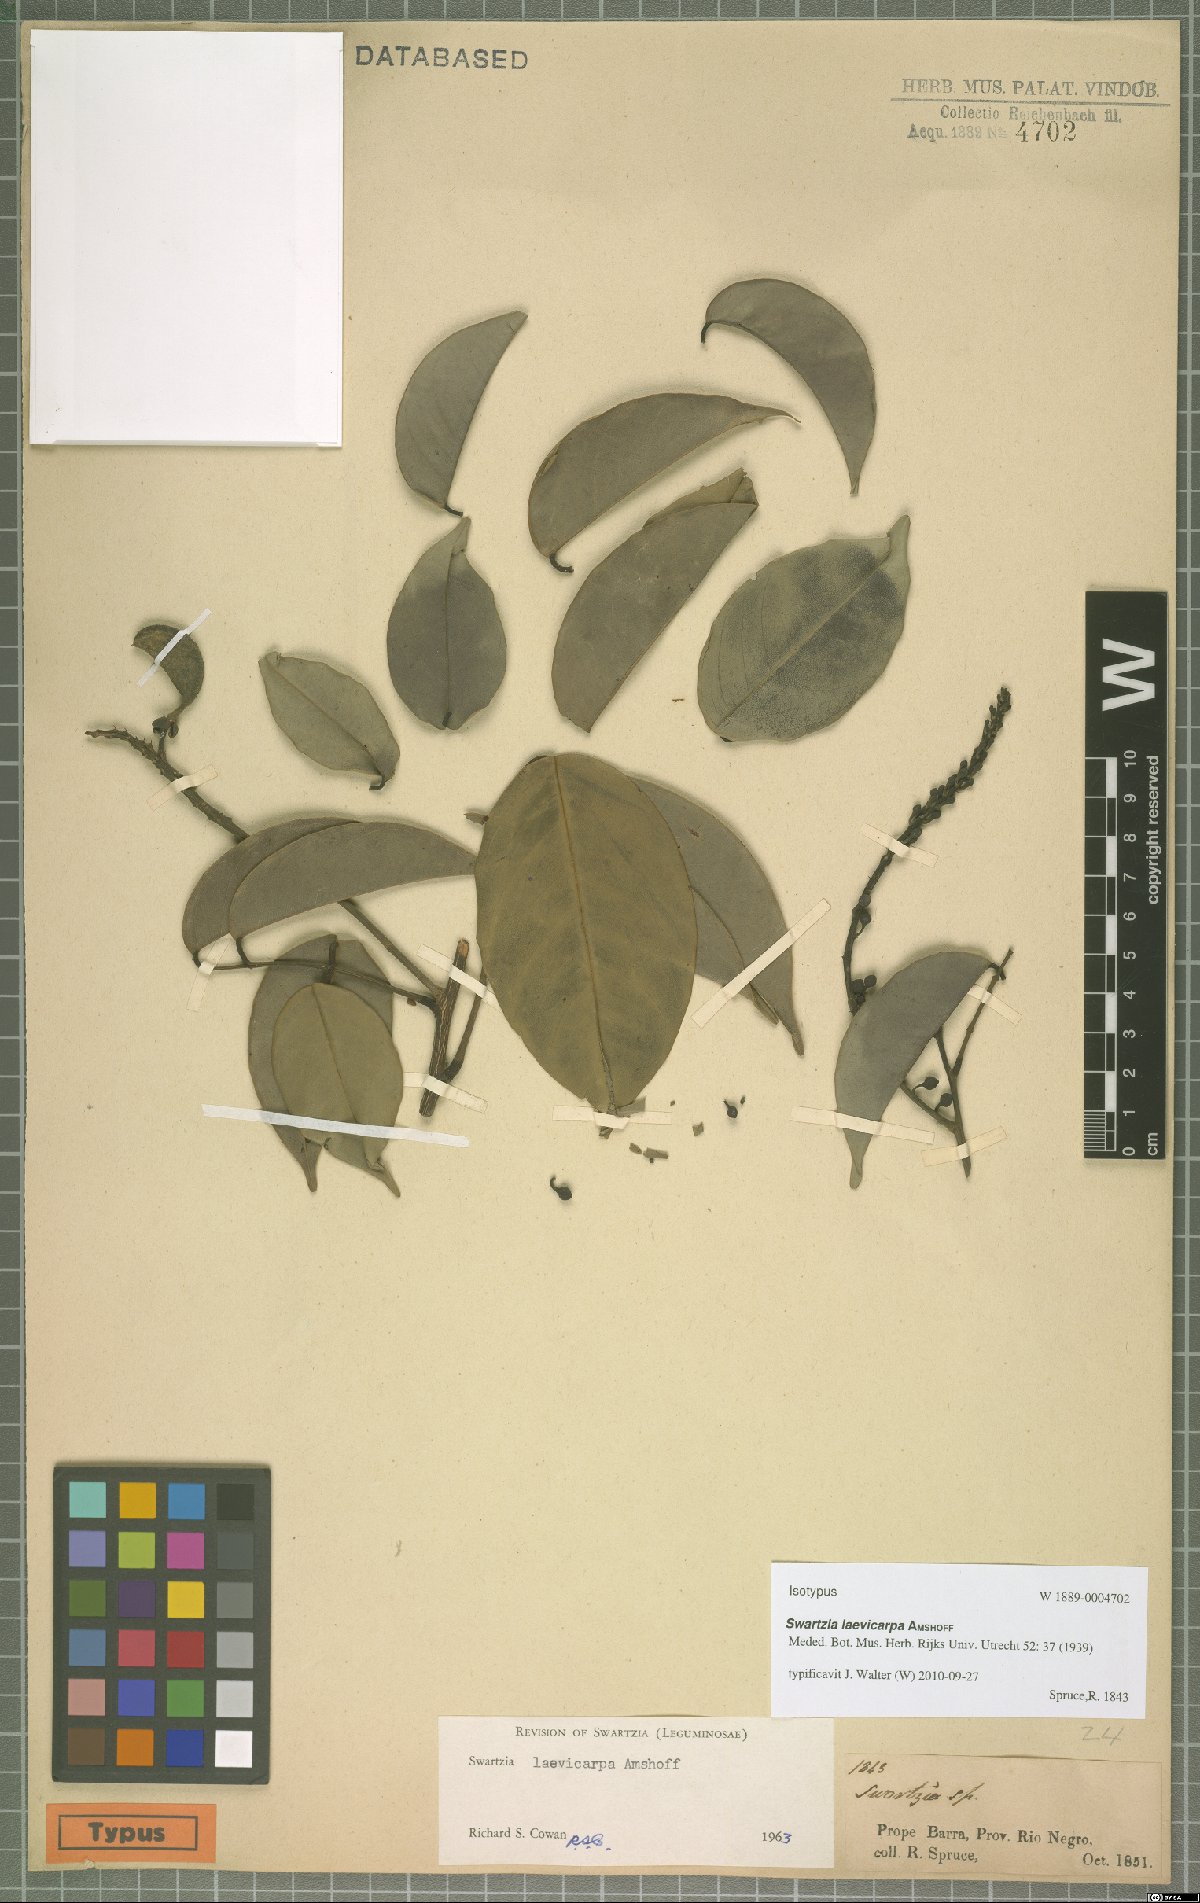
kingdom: Plantae
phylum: Tracheophyta
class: Magnoliopsida
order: Fabales
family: Fabaceae
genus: Swartzia
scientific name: Swartzia laevicarpa
